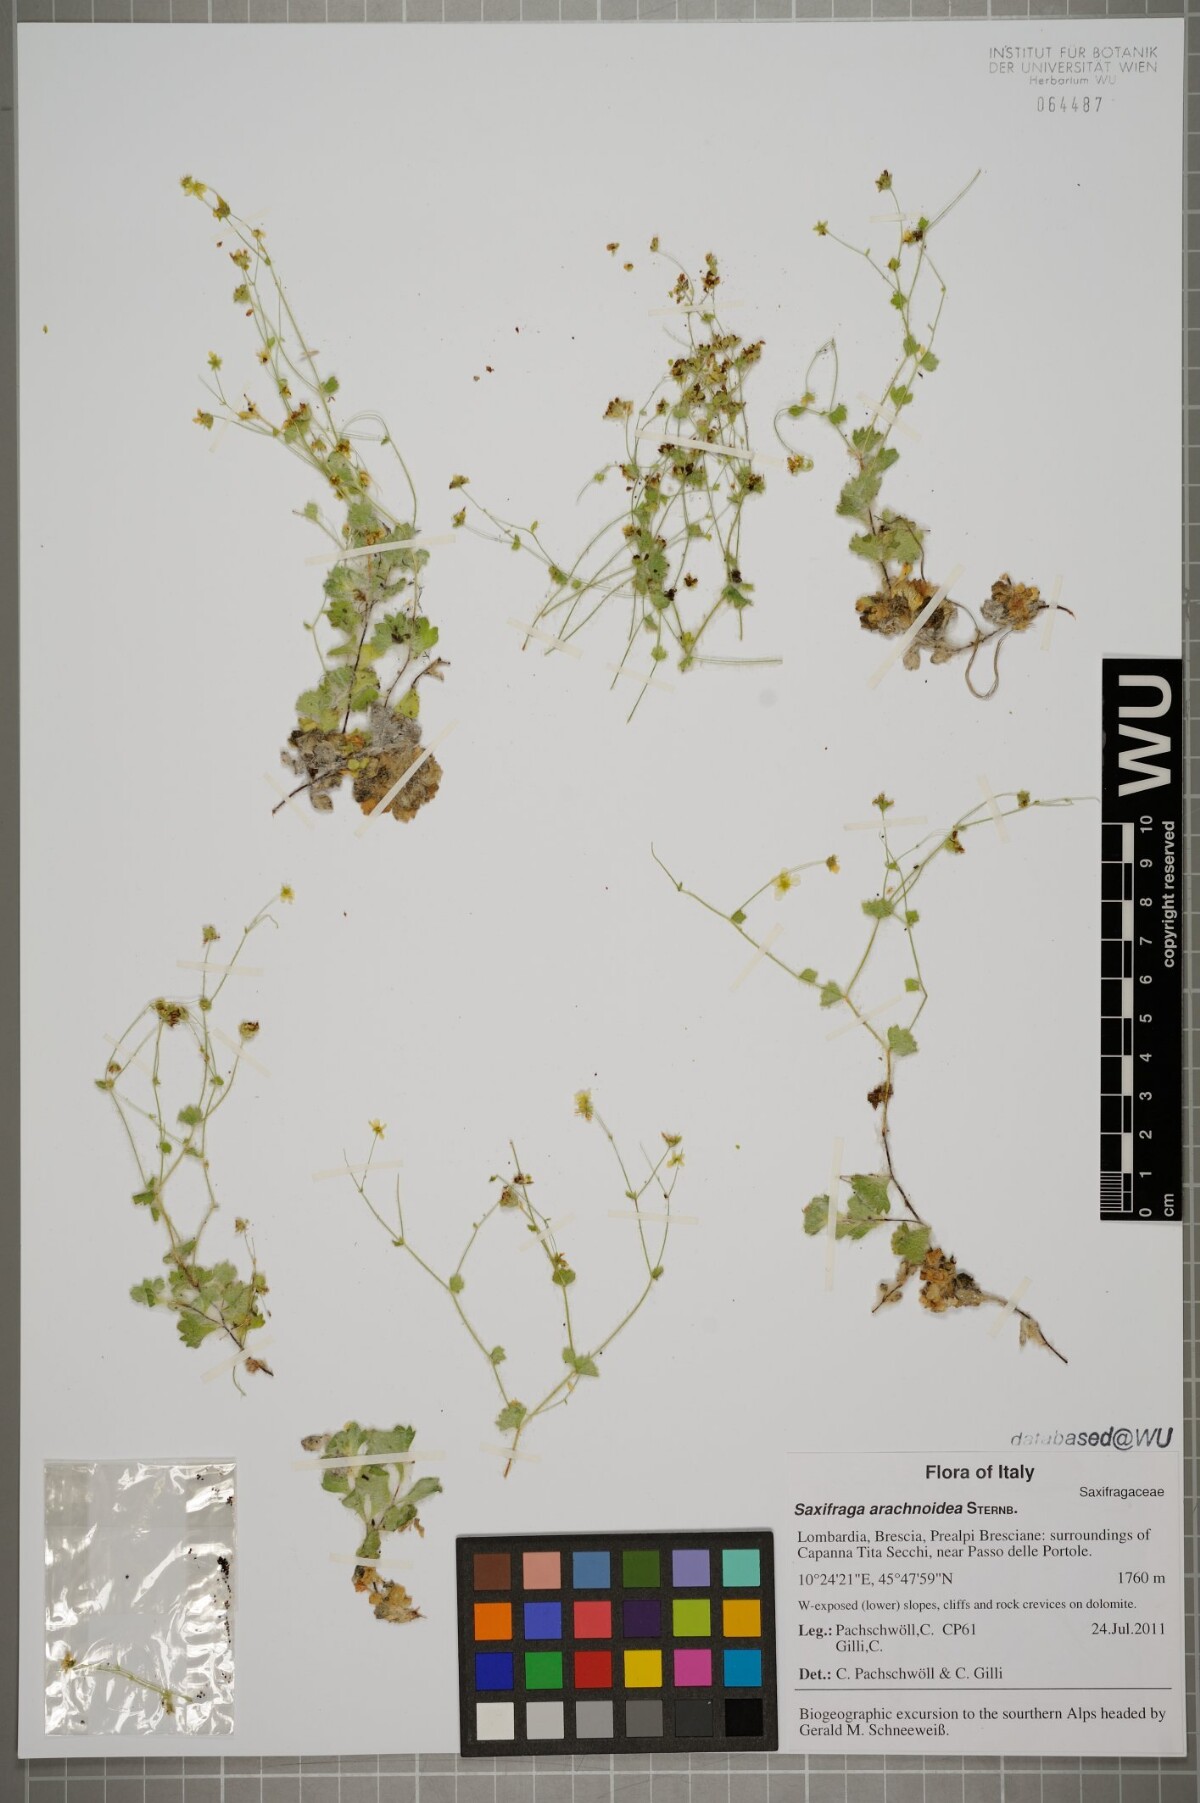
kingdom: Plantae
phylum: Tracheophyta
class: Magnoliopsida
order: Saxifragales
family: Saxifragaceae
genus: Saxifraga
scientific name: Saxifraga arachnoidea
